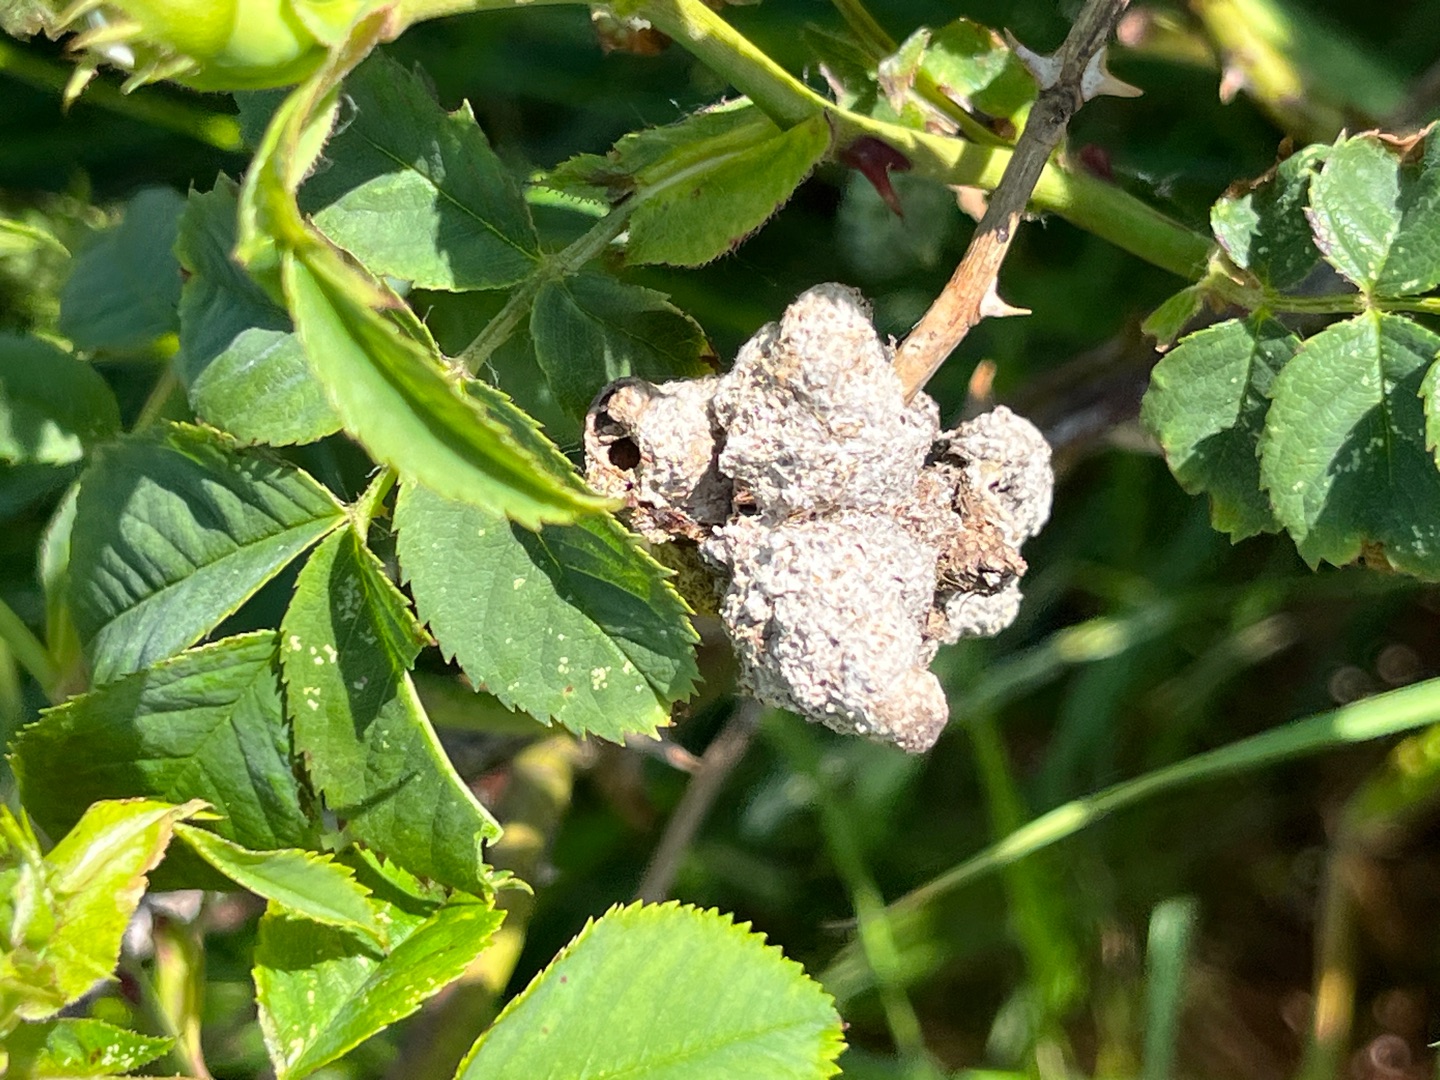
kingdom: Animalia
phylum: Arthropoda
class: Insecta
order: Hymenoptera
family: Cynipidae
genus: Diplolepis
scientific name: Diplolepis rosae
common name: Bedeguargalhveps
